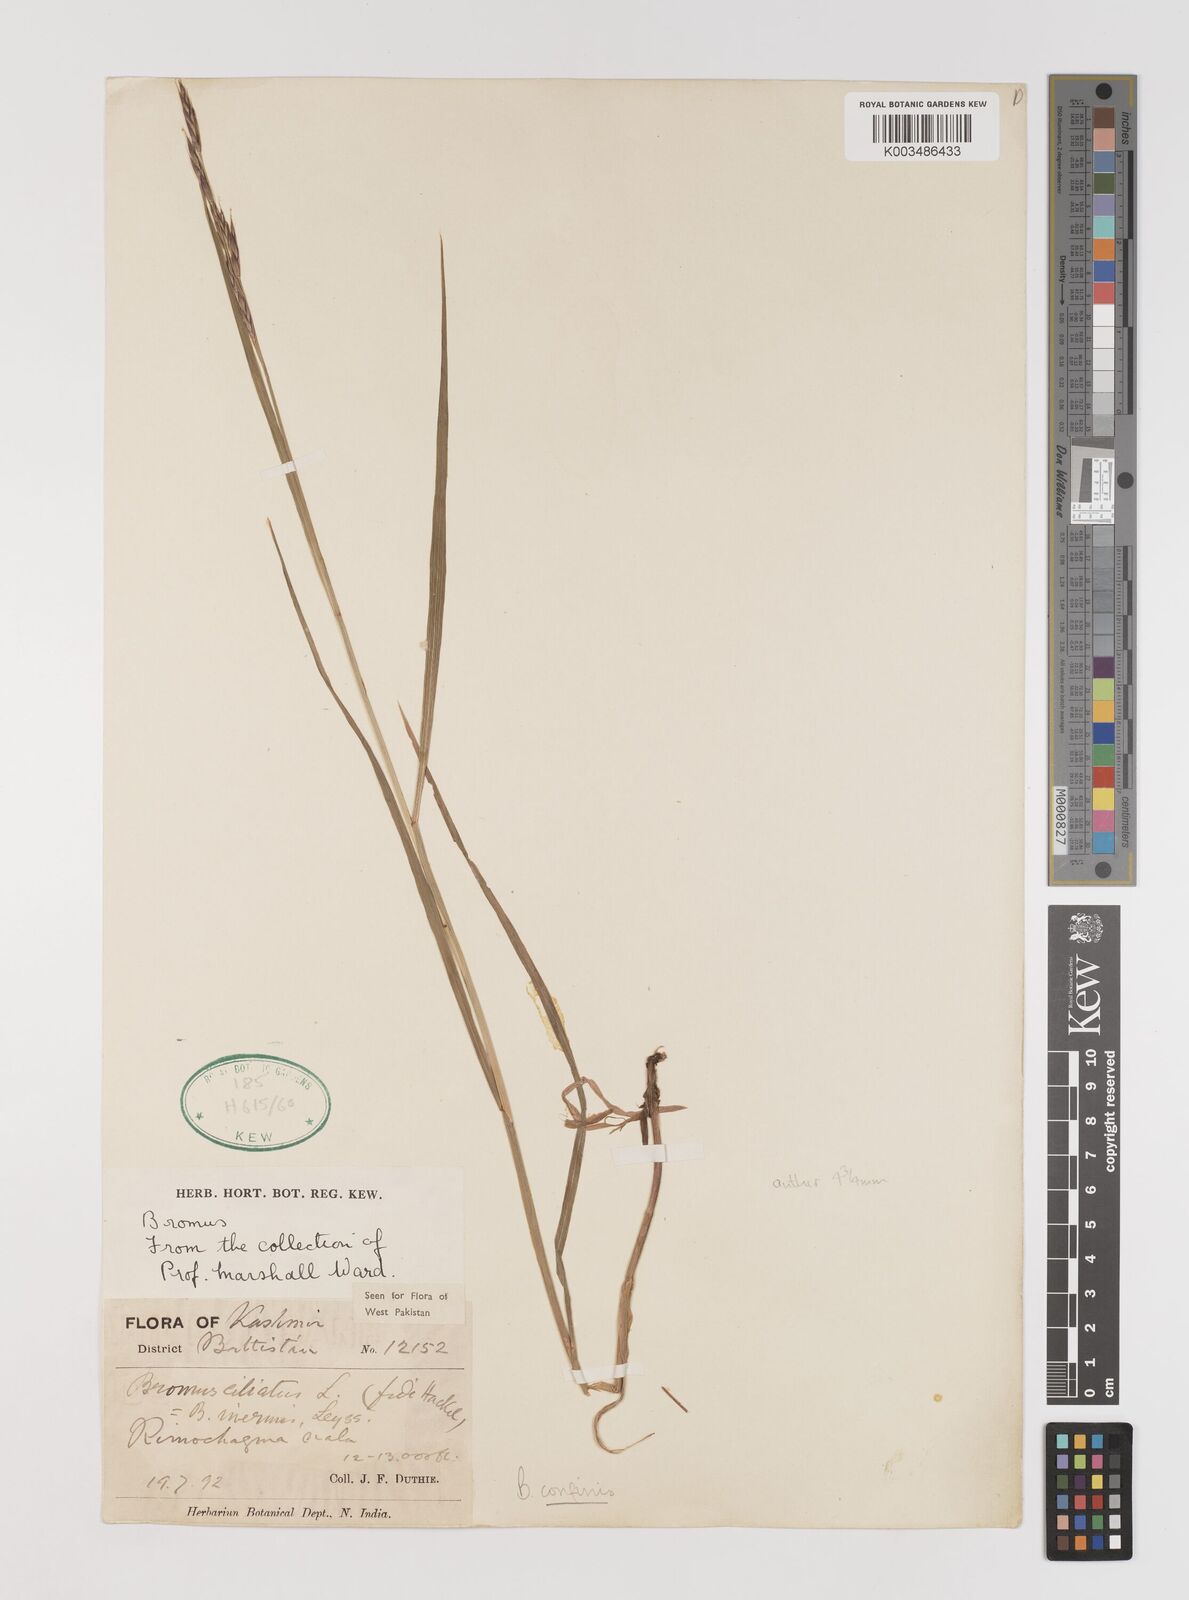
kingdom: Plantae
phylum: Tracheophyta
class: Liliopsida
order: Poales
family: Poaceae
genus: Bromus
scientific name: Bromus confinis
